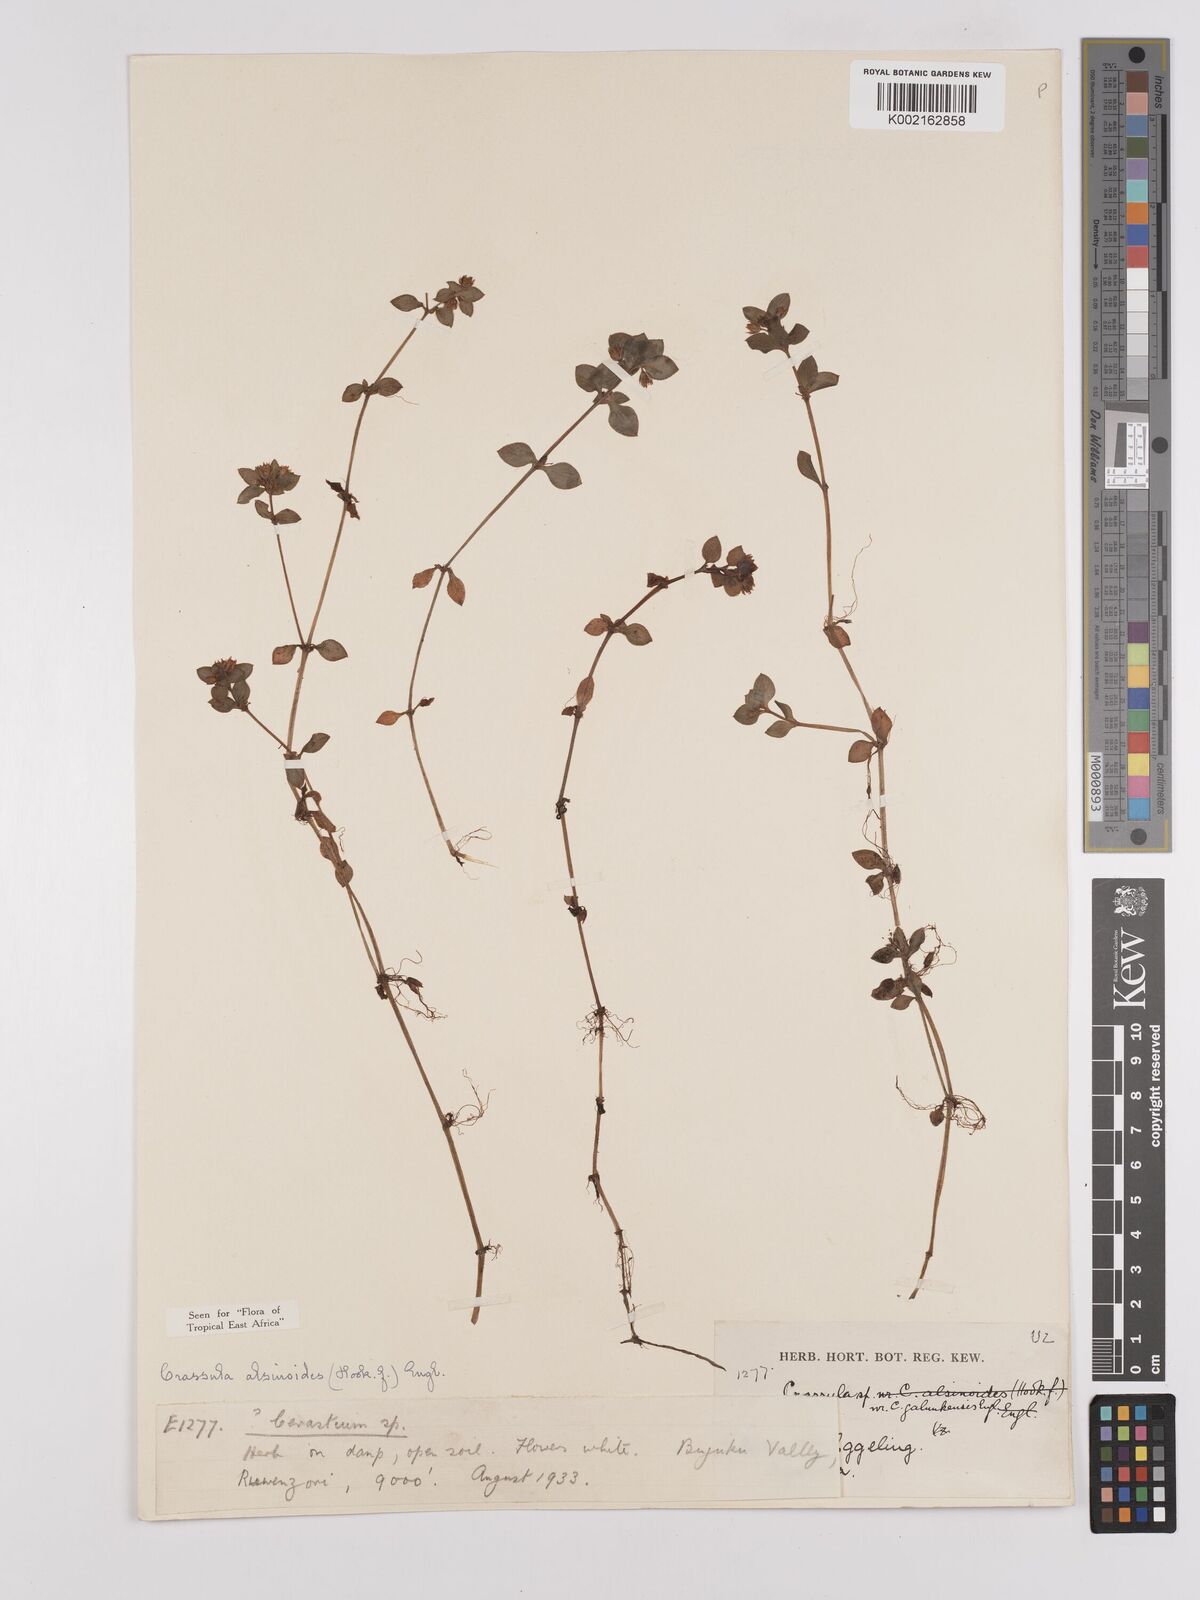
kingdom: Plantae
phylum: Tracheophyta
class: Magnoliopsida
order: Saxifragales
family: Crassulaceae
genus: Crassula
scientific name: Crassula alsinoides
